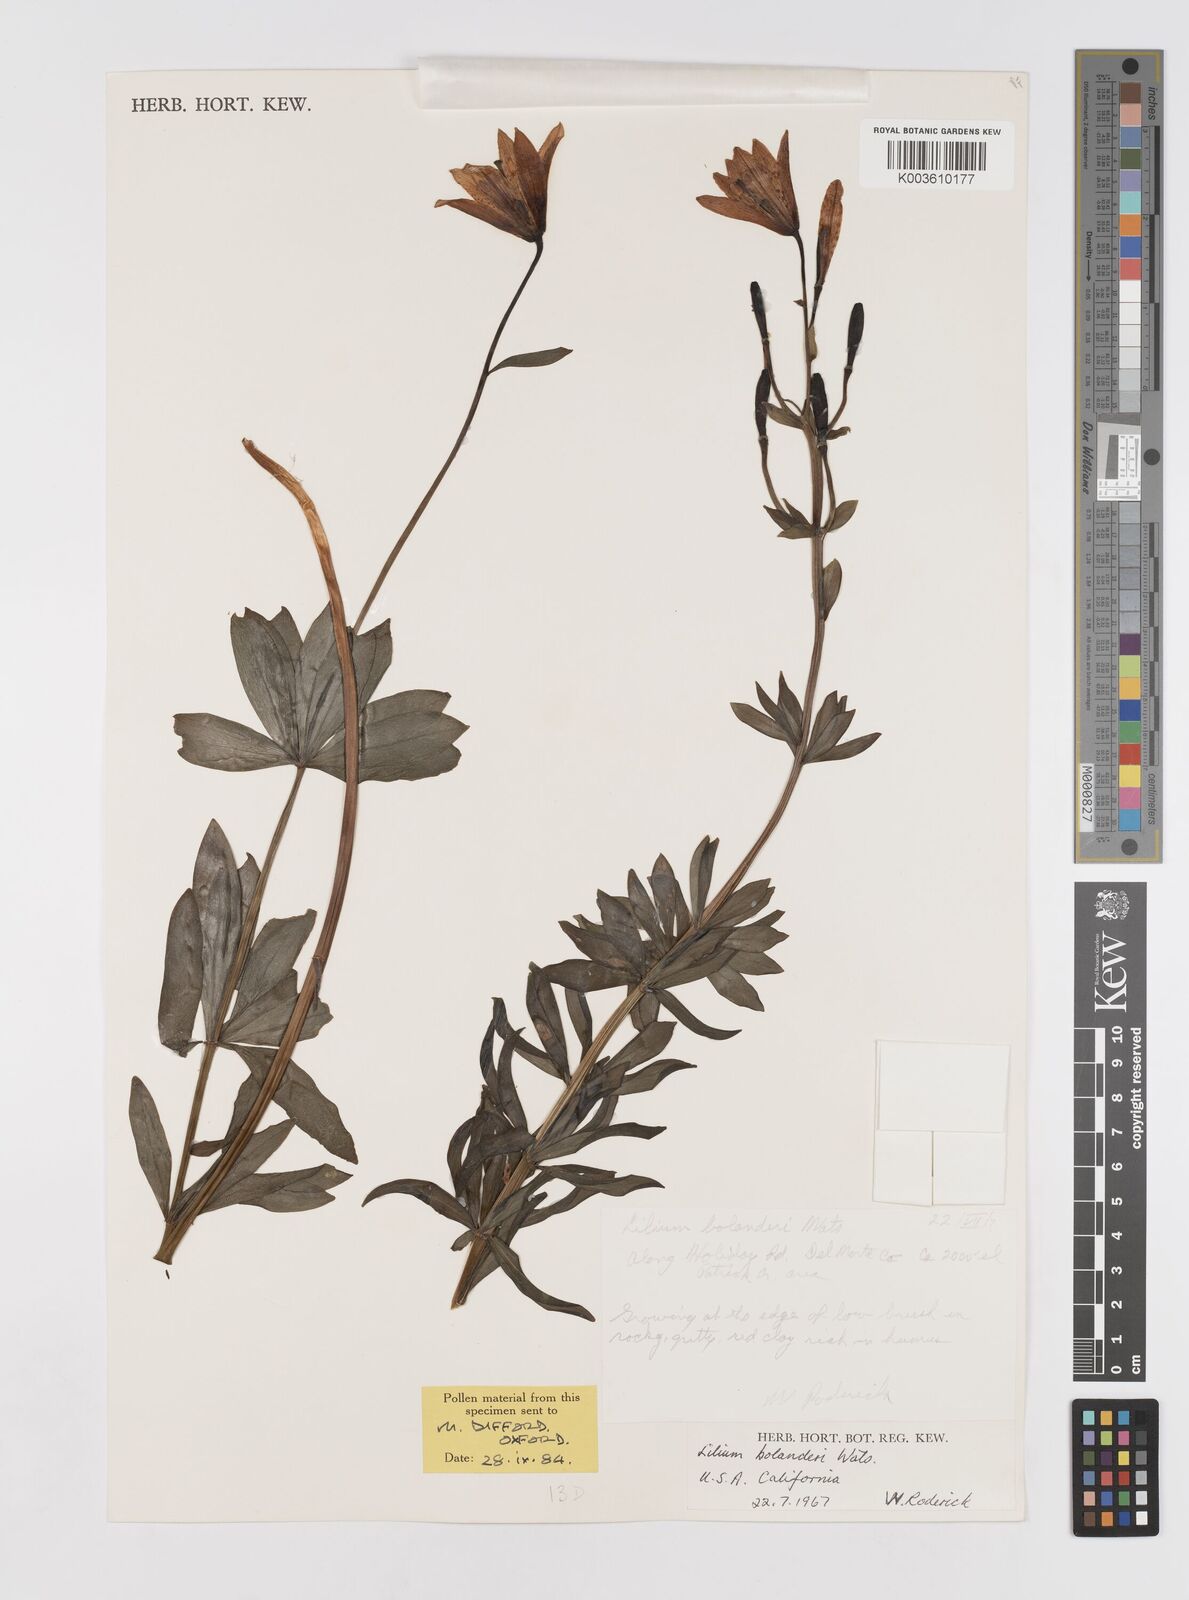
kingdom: Plantae
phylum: Tracheophyta
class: Liliopsida
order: Liliales
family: Liliaceae
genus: Lilium
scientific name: Lilium bolanderi
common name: Bolander's lily
